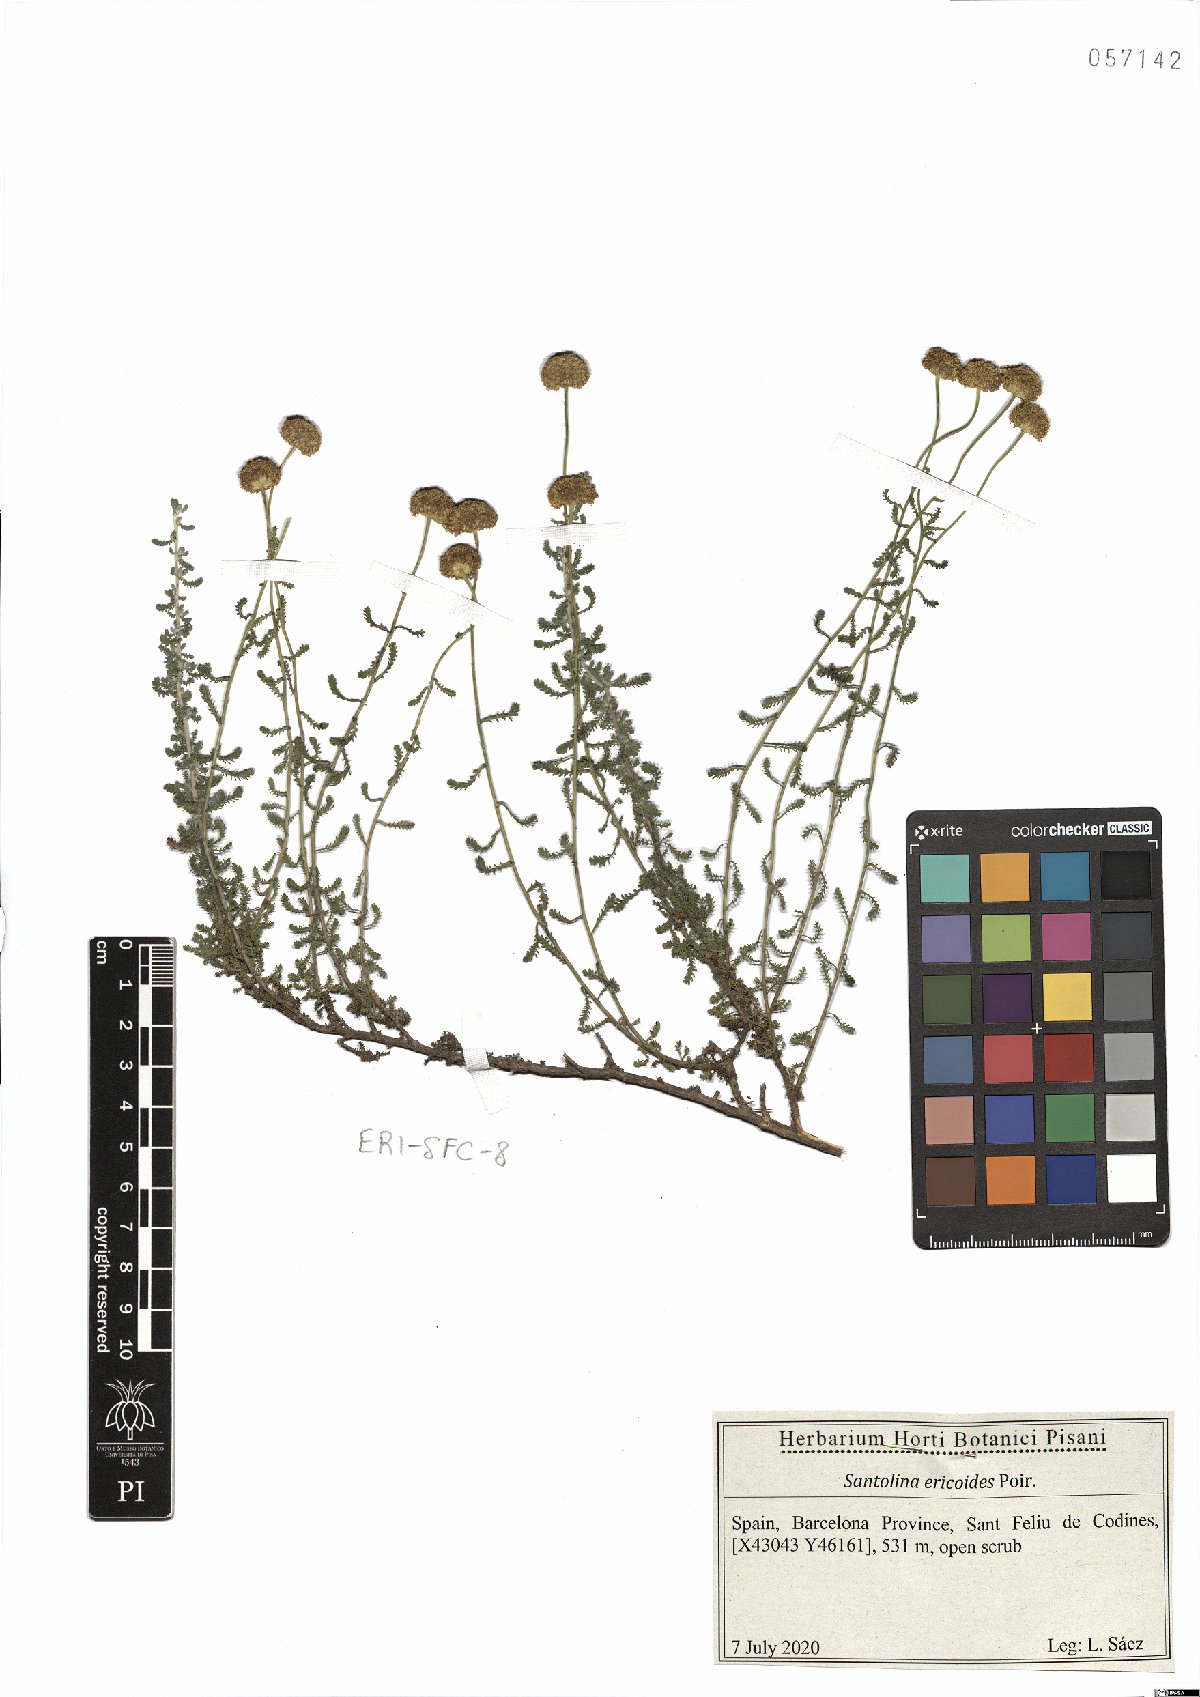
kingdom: Plantae
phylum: Tracheophyta
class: Magnoliopsida
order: Asterales
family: Asteraceae
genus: Santolina
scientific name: Santolina ericoides
